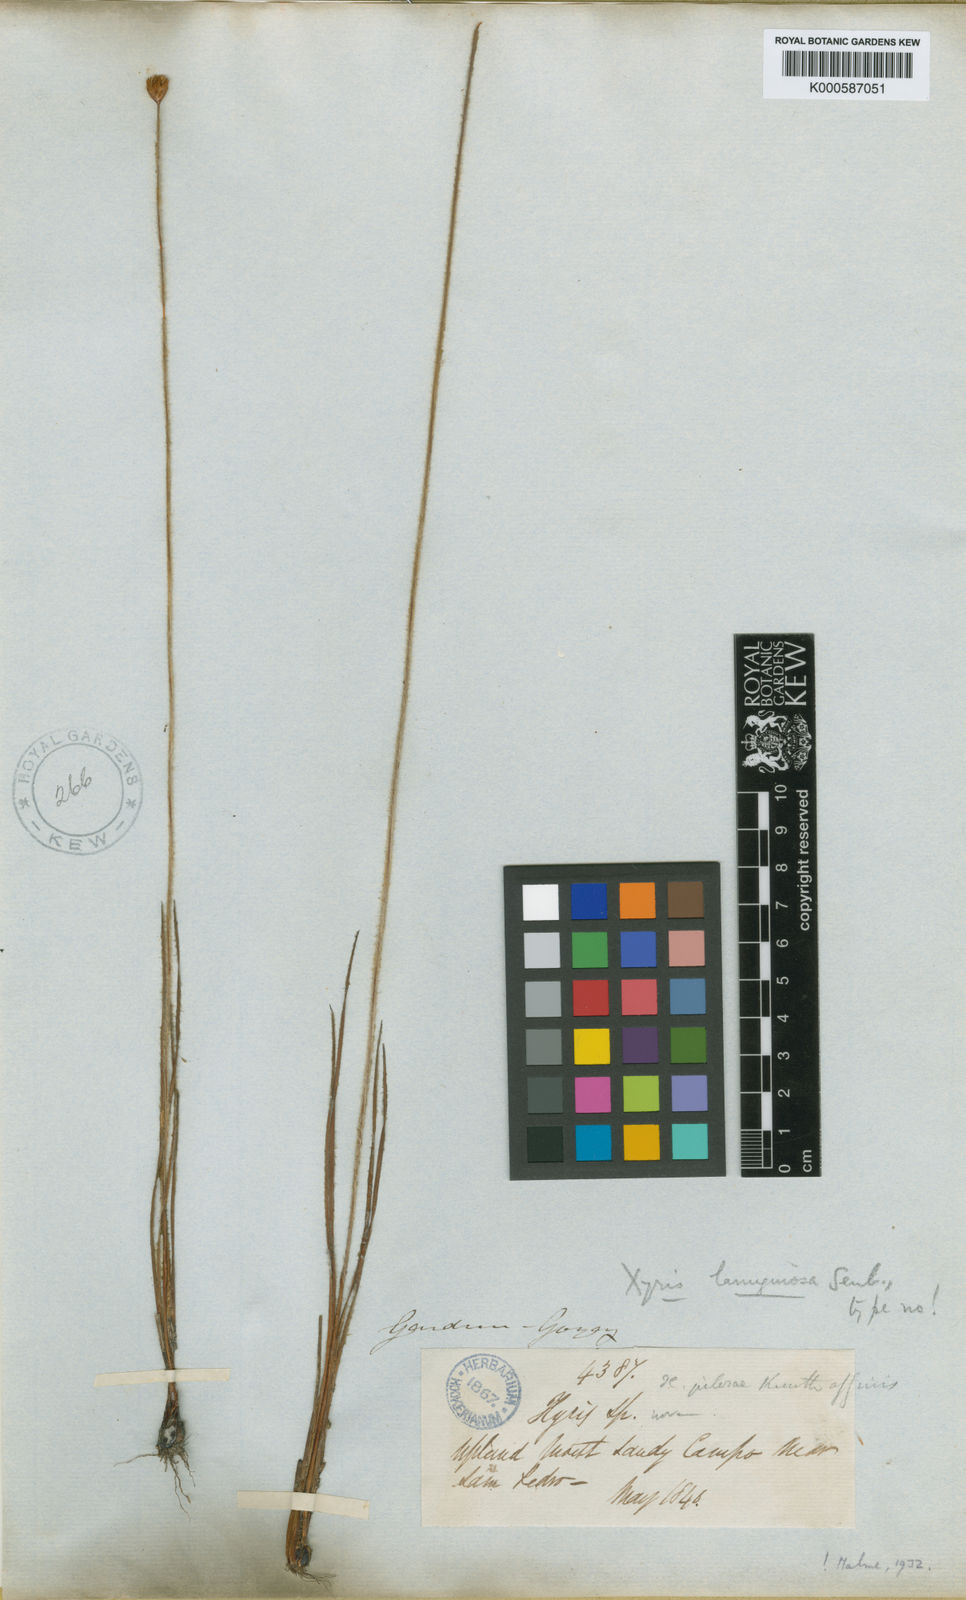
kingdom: Plantae
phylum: Tracheophyta
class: Liliopsida
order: Poales
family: Xyridaceae
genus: Xyris
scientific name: Xyris lanuginosa
